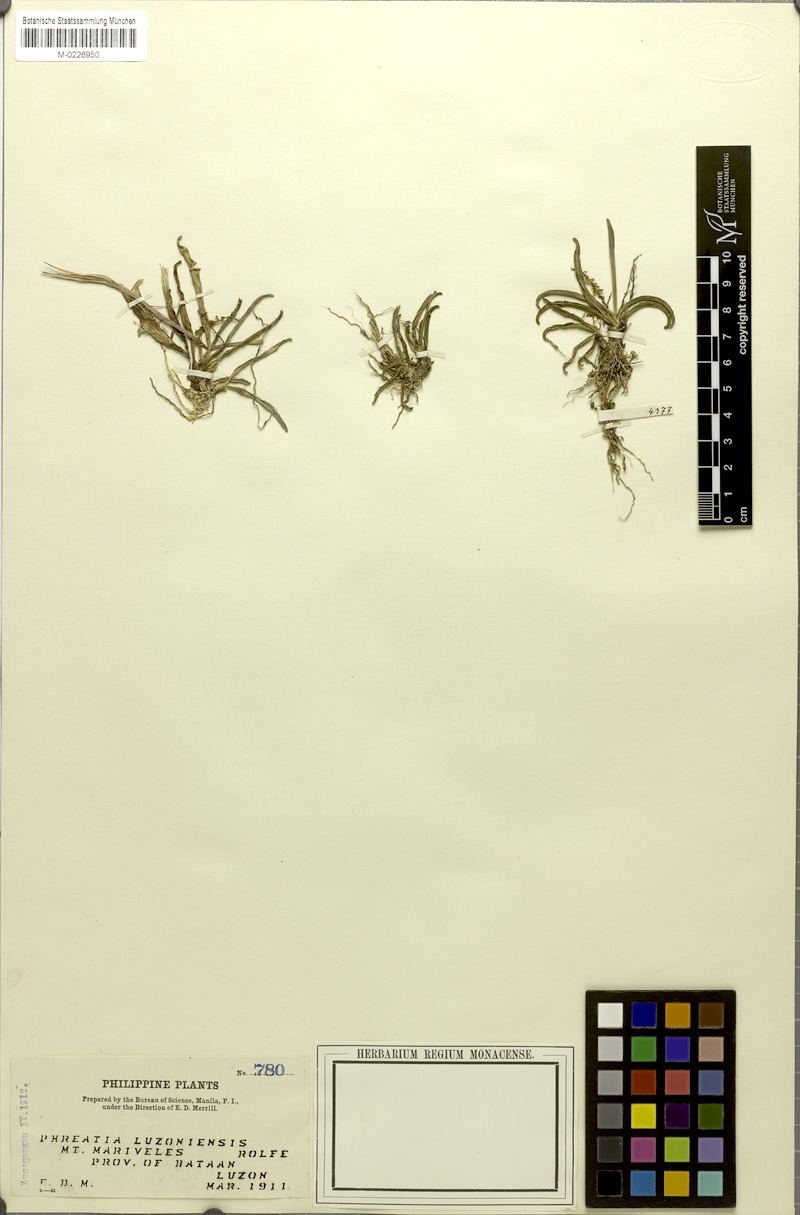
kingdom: Plantae
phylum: Tracheophyta
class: Liliopsida
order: Asparagales
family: Orchidaceae
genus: Phreatia
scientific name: Phreatia luzoniensis
